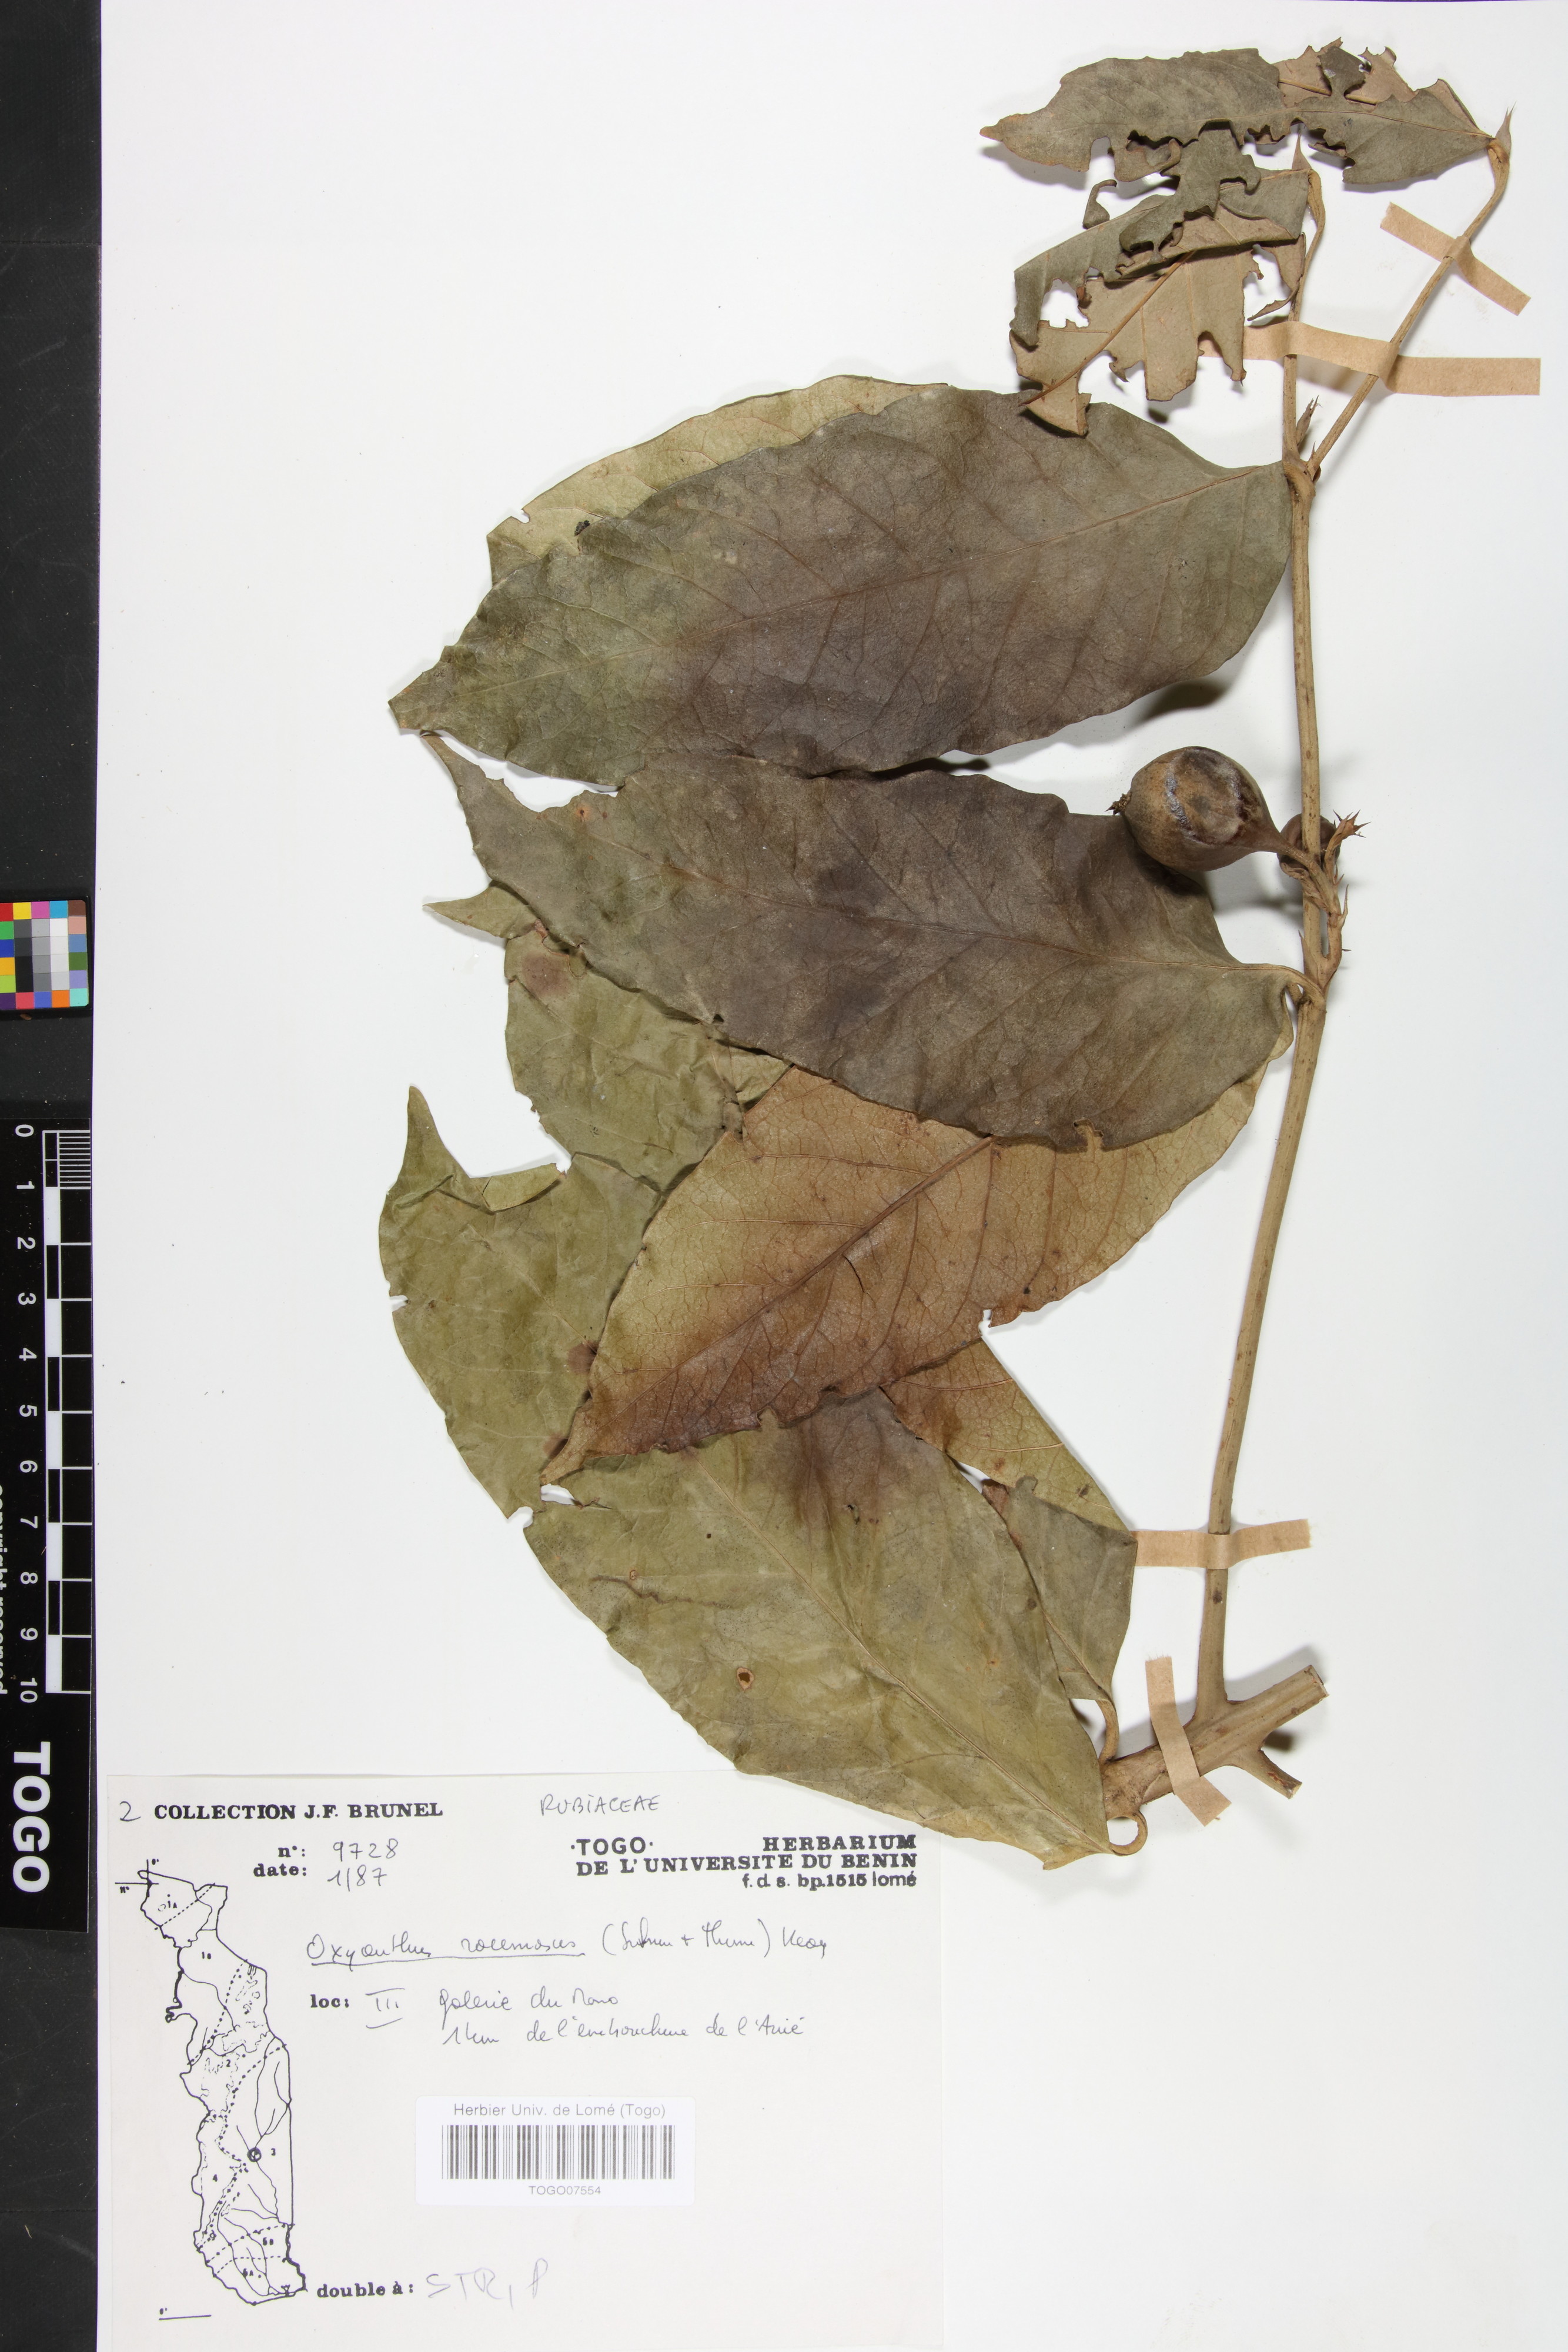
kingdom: Plantae
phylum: Tracheophyta
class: Magnoliopsida
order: Gentianales
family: Rubiaceae
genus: Oxyanthus
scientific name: Oxyanthus racemosus
